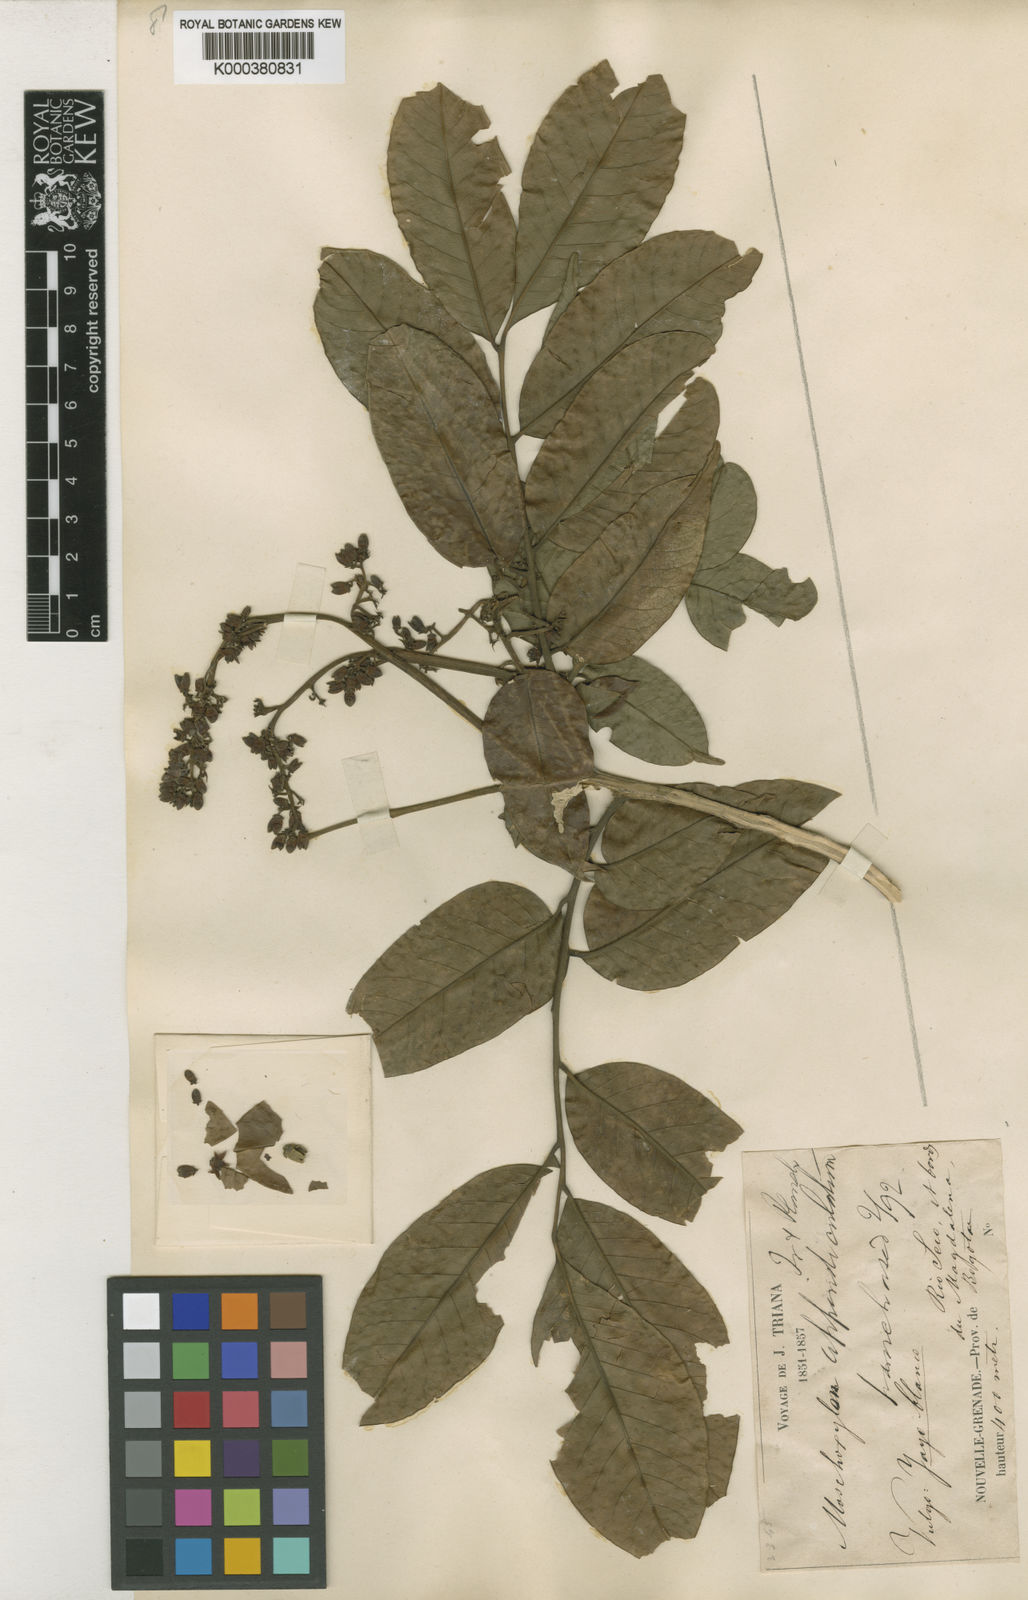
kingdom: Plantae
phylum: Tracheophyta
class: Magnoliopsida
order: Sapindales
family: Meliaceae
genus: Trichilia
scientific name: Trichilia appendiculata
